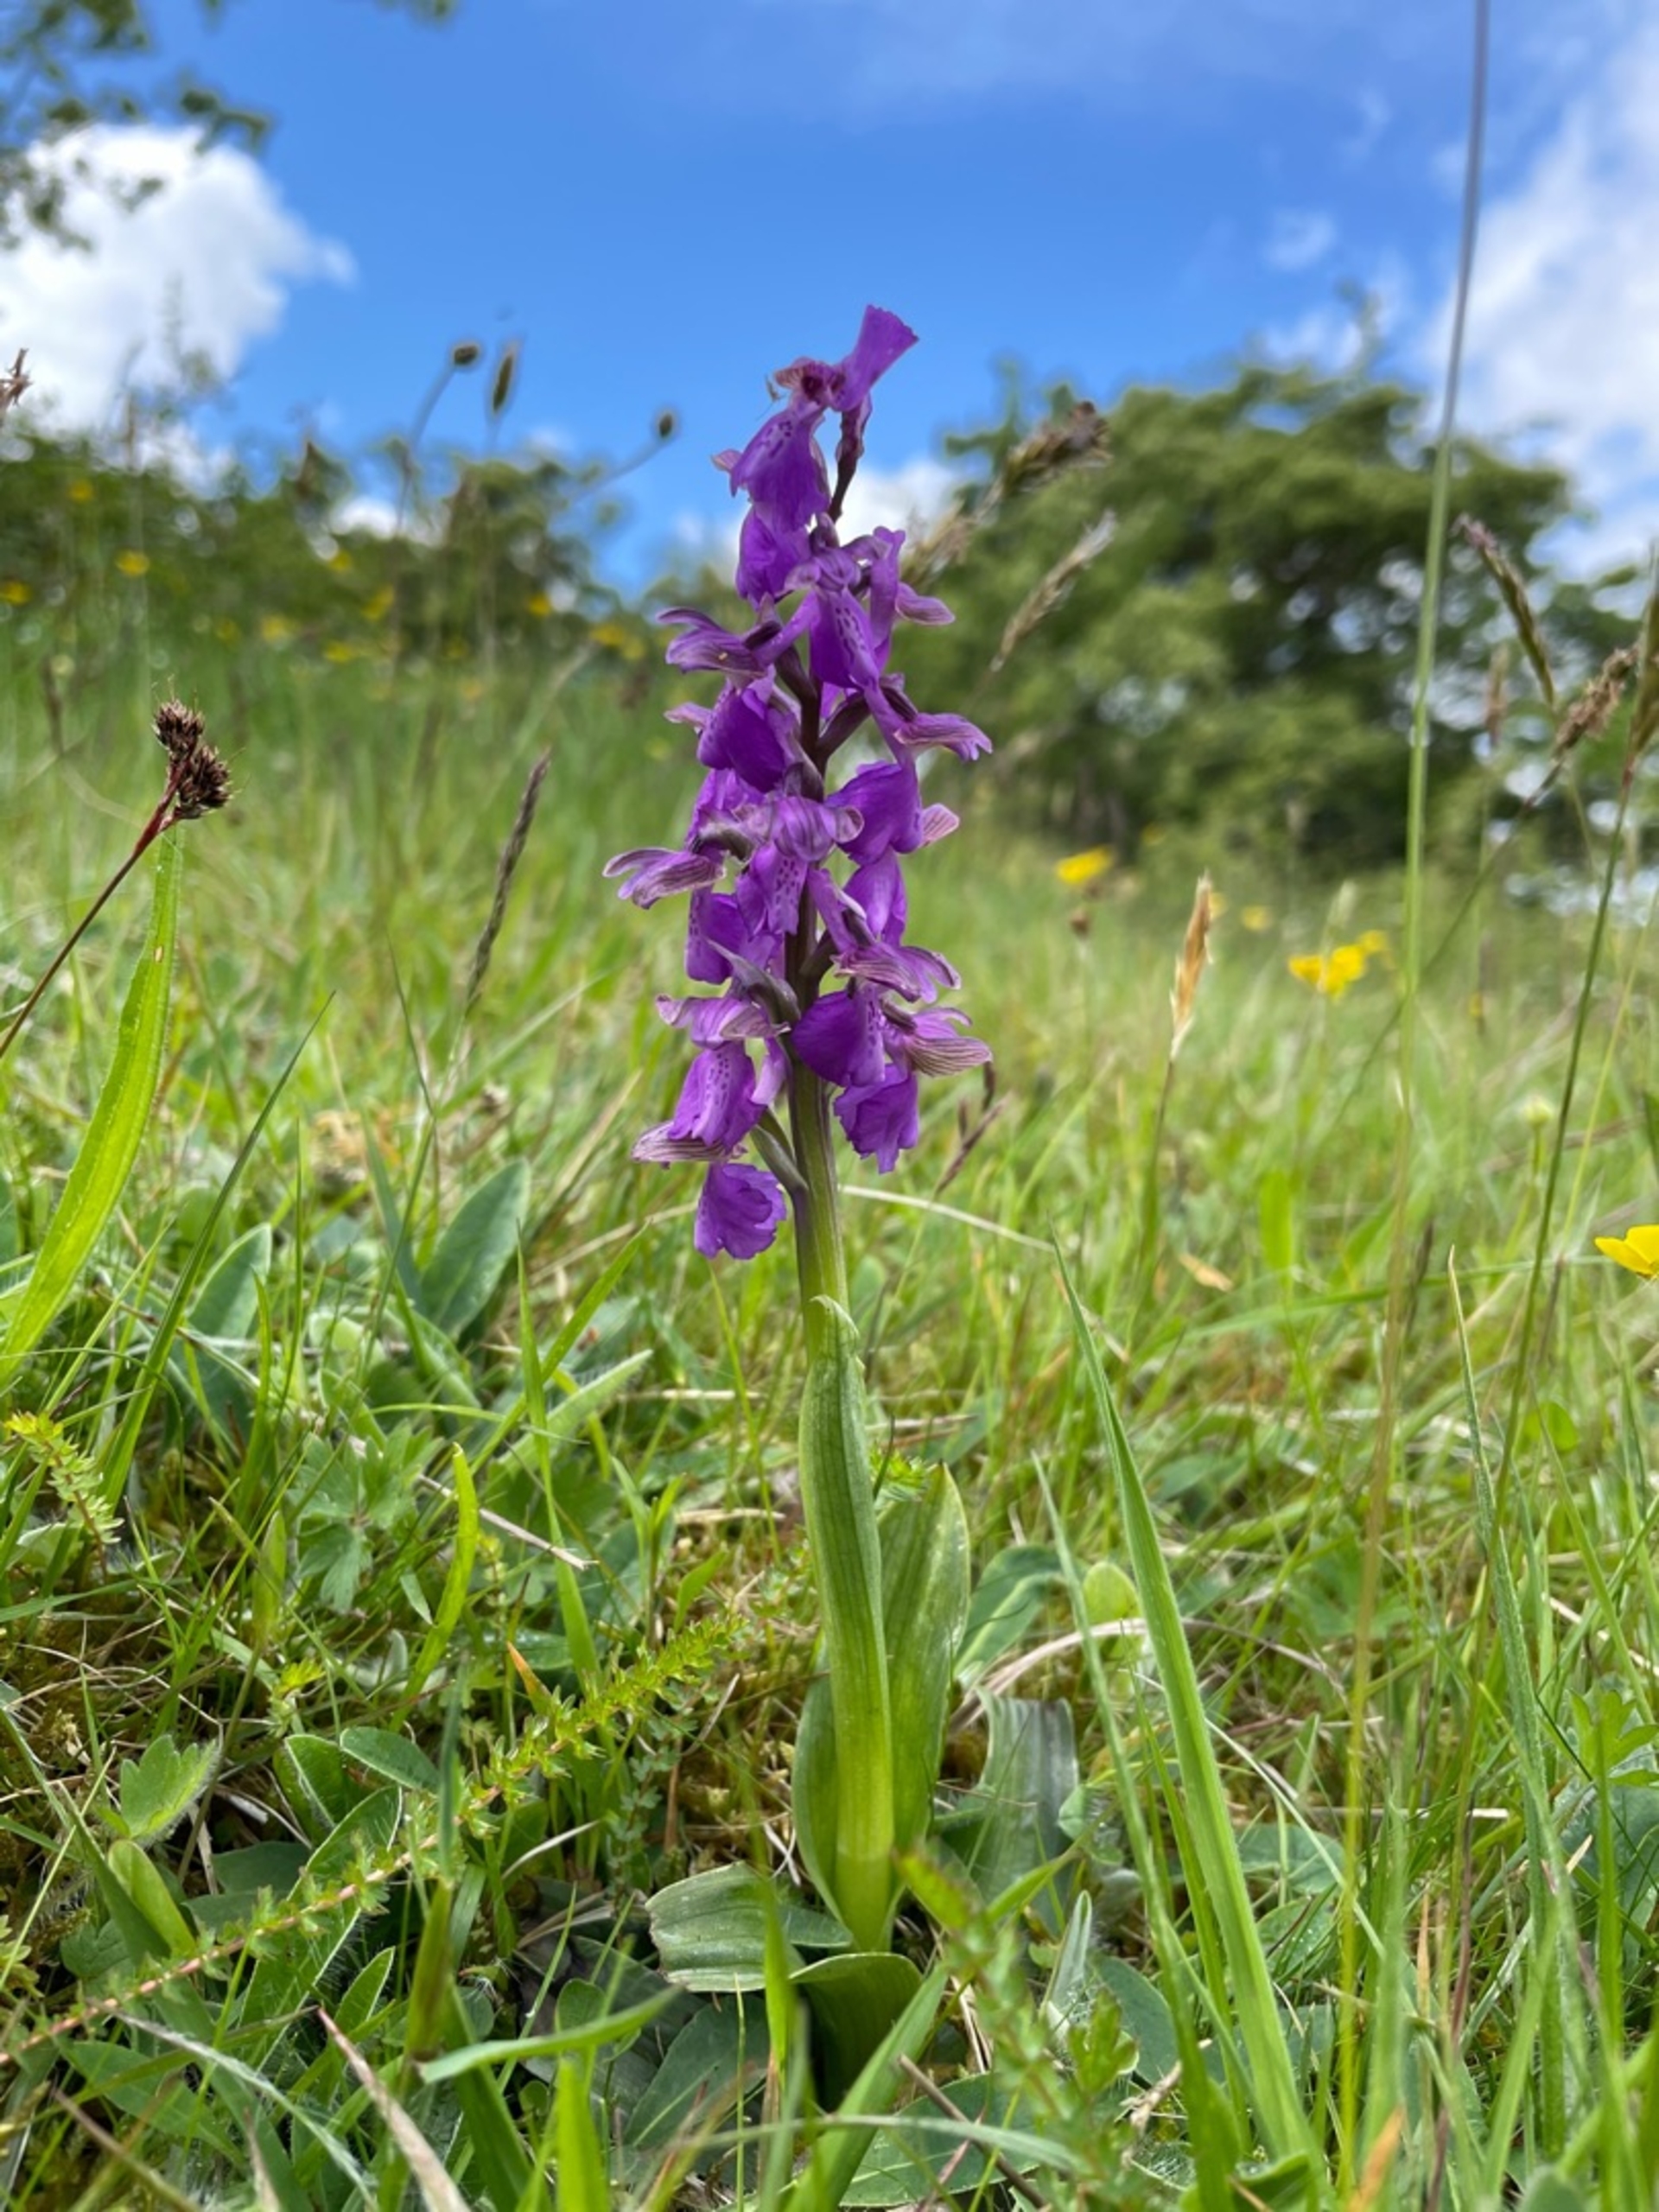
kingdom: Plantae
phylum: Tracheophyta
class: Liliopsida
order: Asparagales
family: Orchidaceae
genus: Anacamptis
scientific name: Anacamptis morio
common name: Salepgøgeurt
